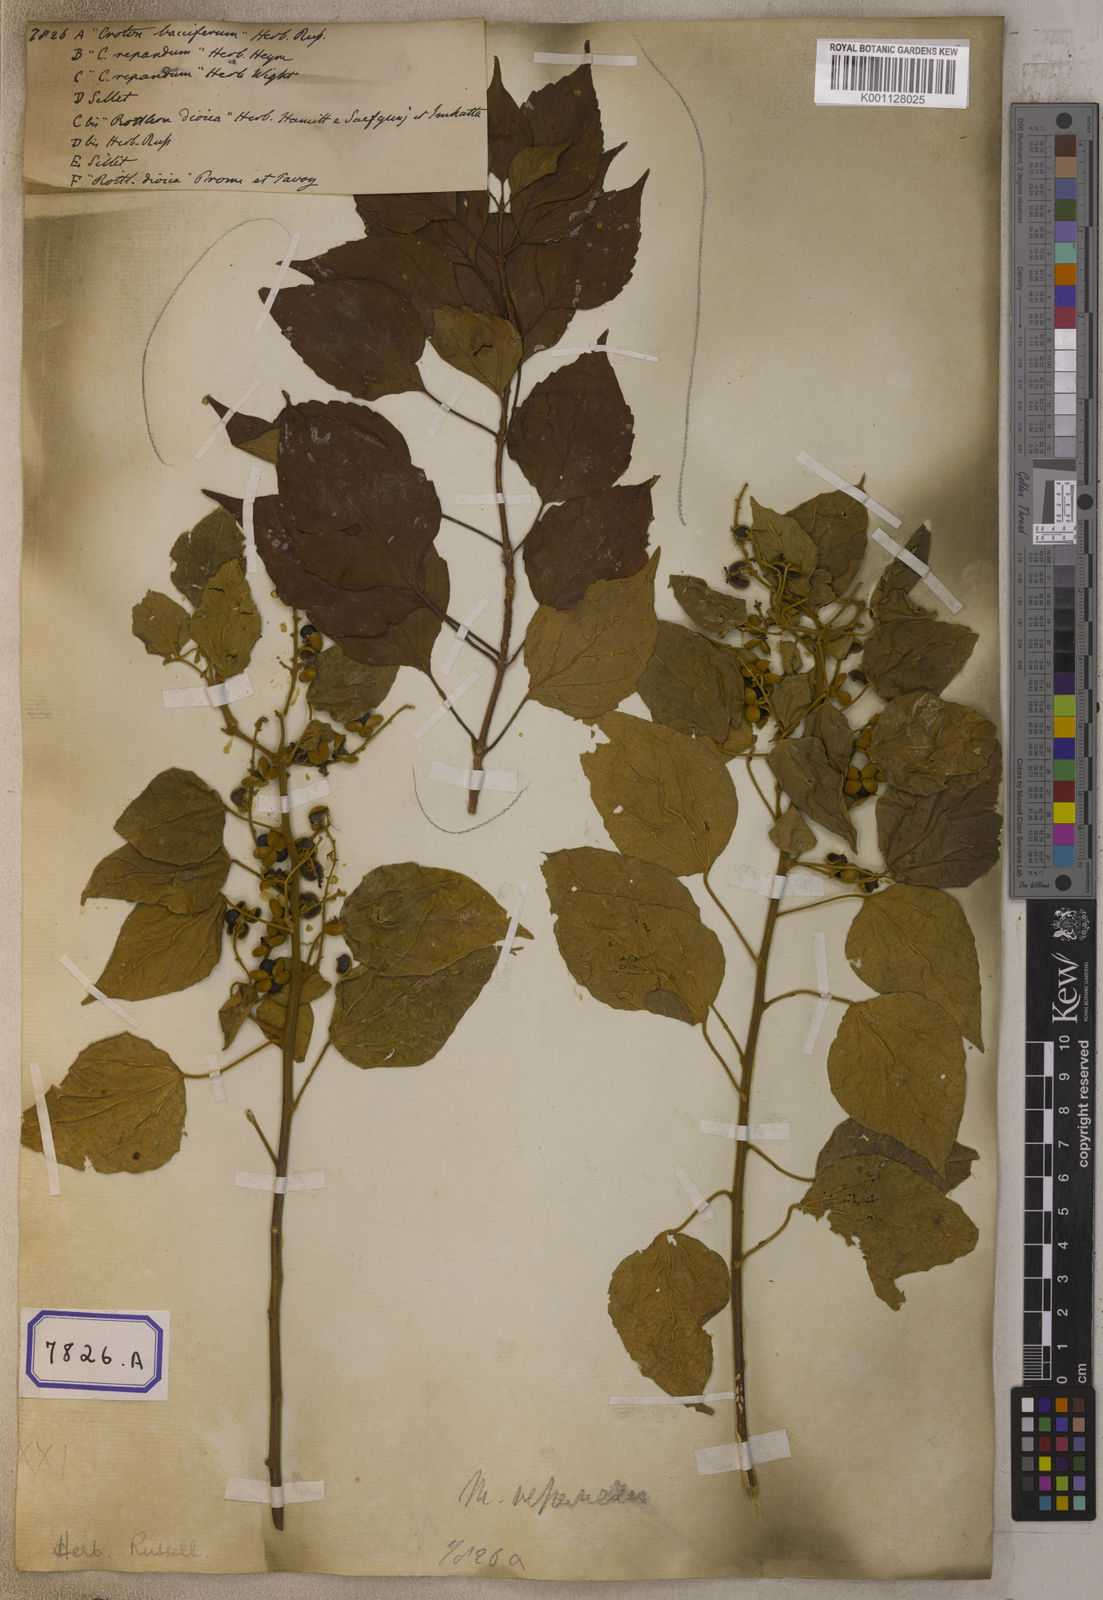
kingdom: Plantae
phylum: Tracheophyta
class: Magnoliopsida
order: Malpighiales
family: Euphorbiaceae
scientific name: Euphorbiaceae
